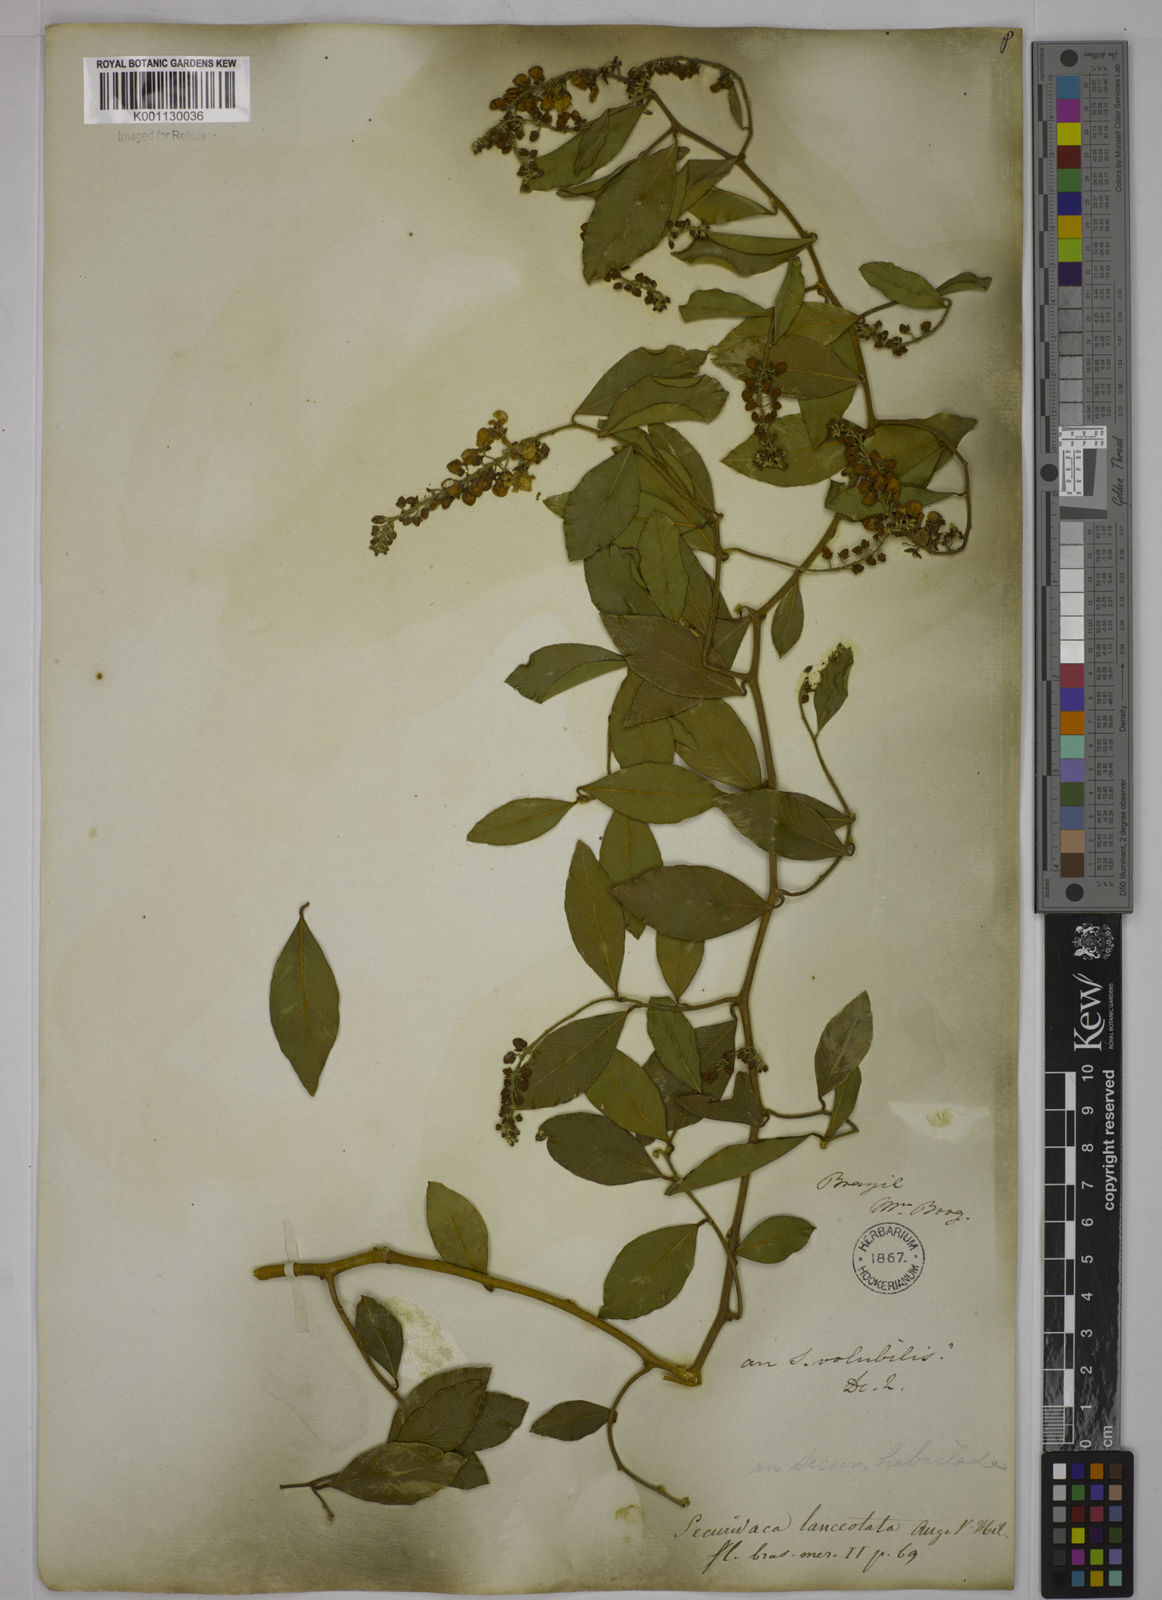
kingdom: Plantae
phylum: Tracheophyta
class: Magnoliopsida
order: Fabales
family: Polygalaceae
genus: Securidaca
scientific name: Securidaca lanceolata
